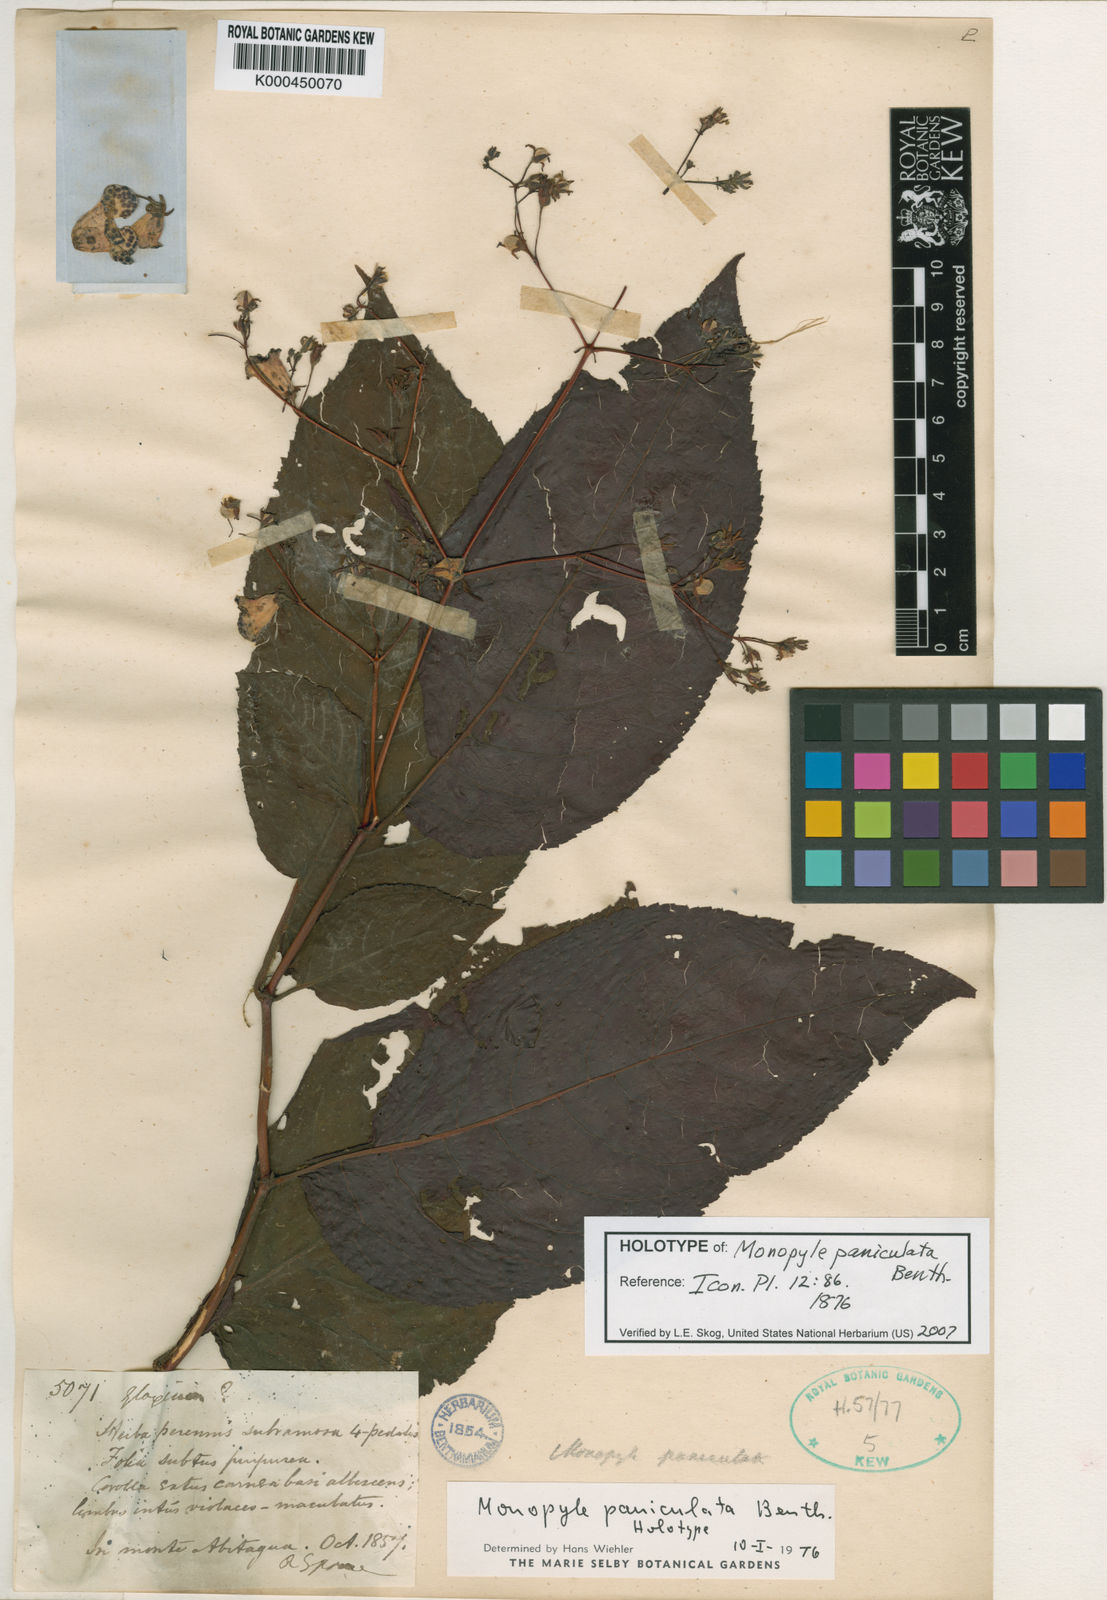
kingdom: Plantae
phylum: Tracheophyta
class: Magnoliopsida
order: Lamiales
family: Gesneriaceae
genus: Monopyle
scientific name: Monopyle paniculata
